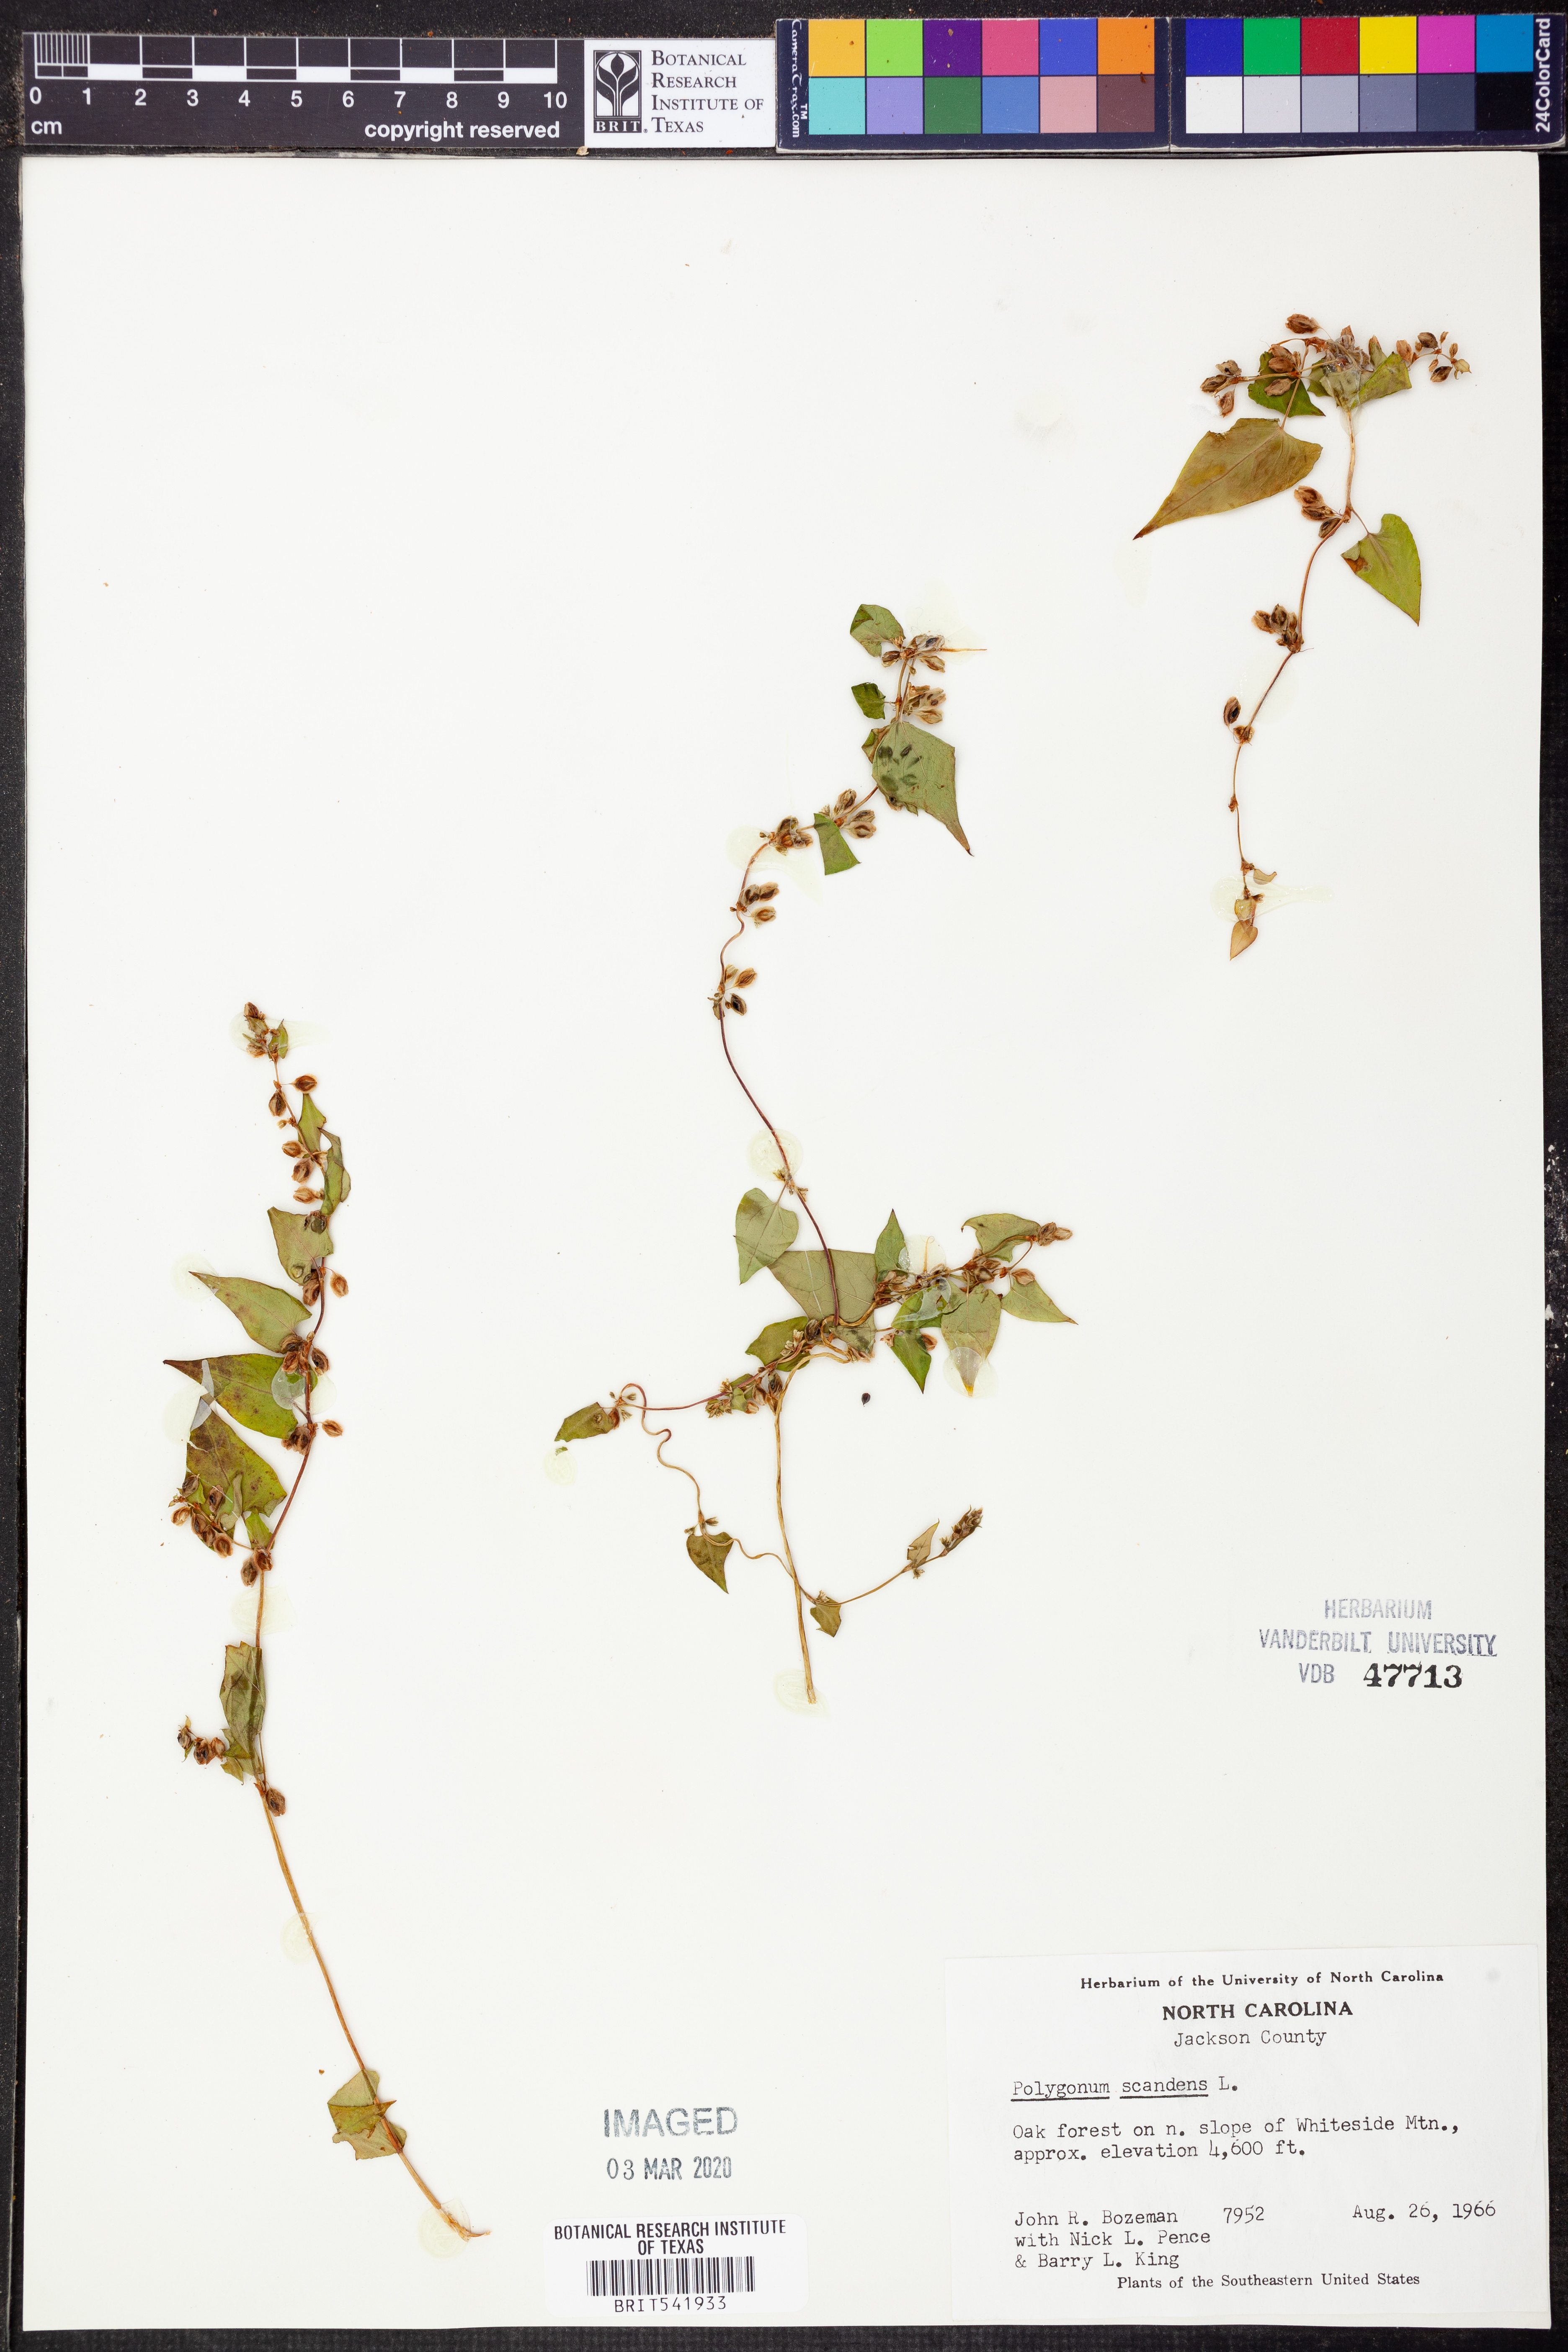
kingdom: Plantae
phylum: Tracheophyta
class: Magnoliopsida
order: Caryophyllales
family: Polygonaceae
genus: Fallopia
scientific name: Fallopia scandens
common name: Climbing false buckwheat
